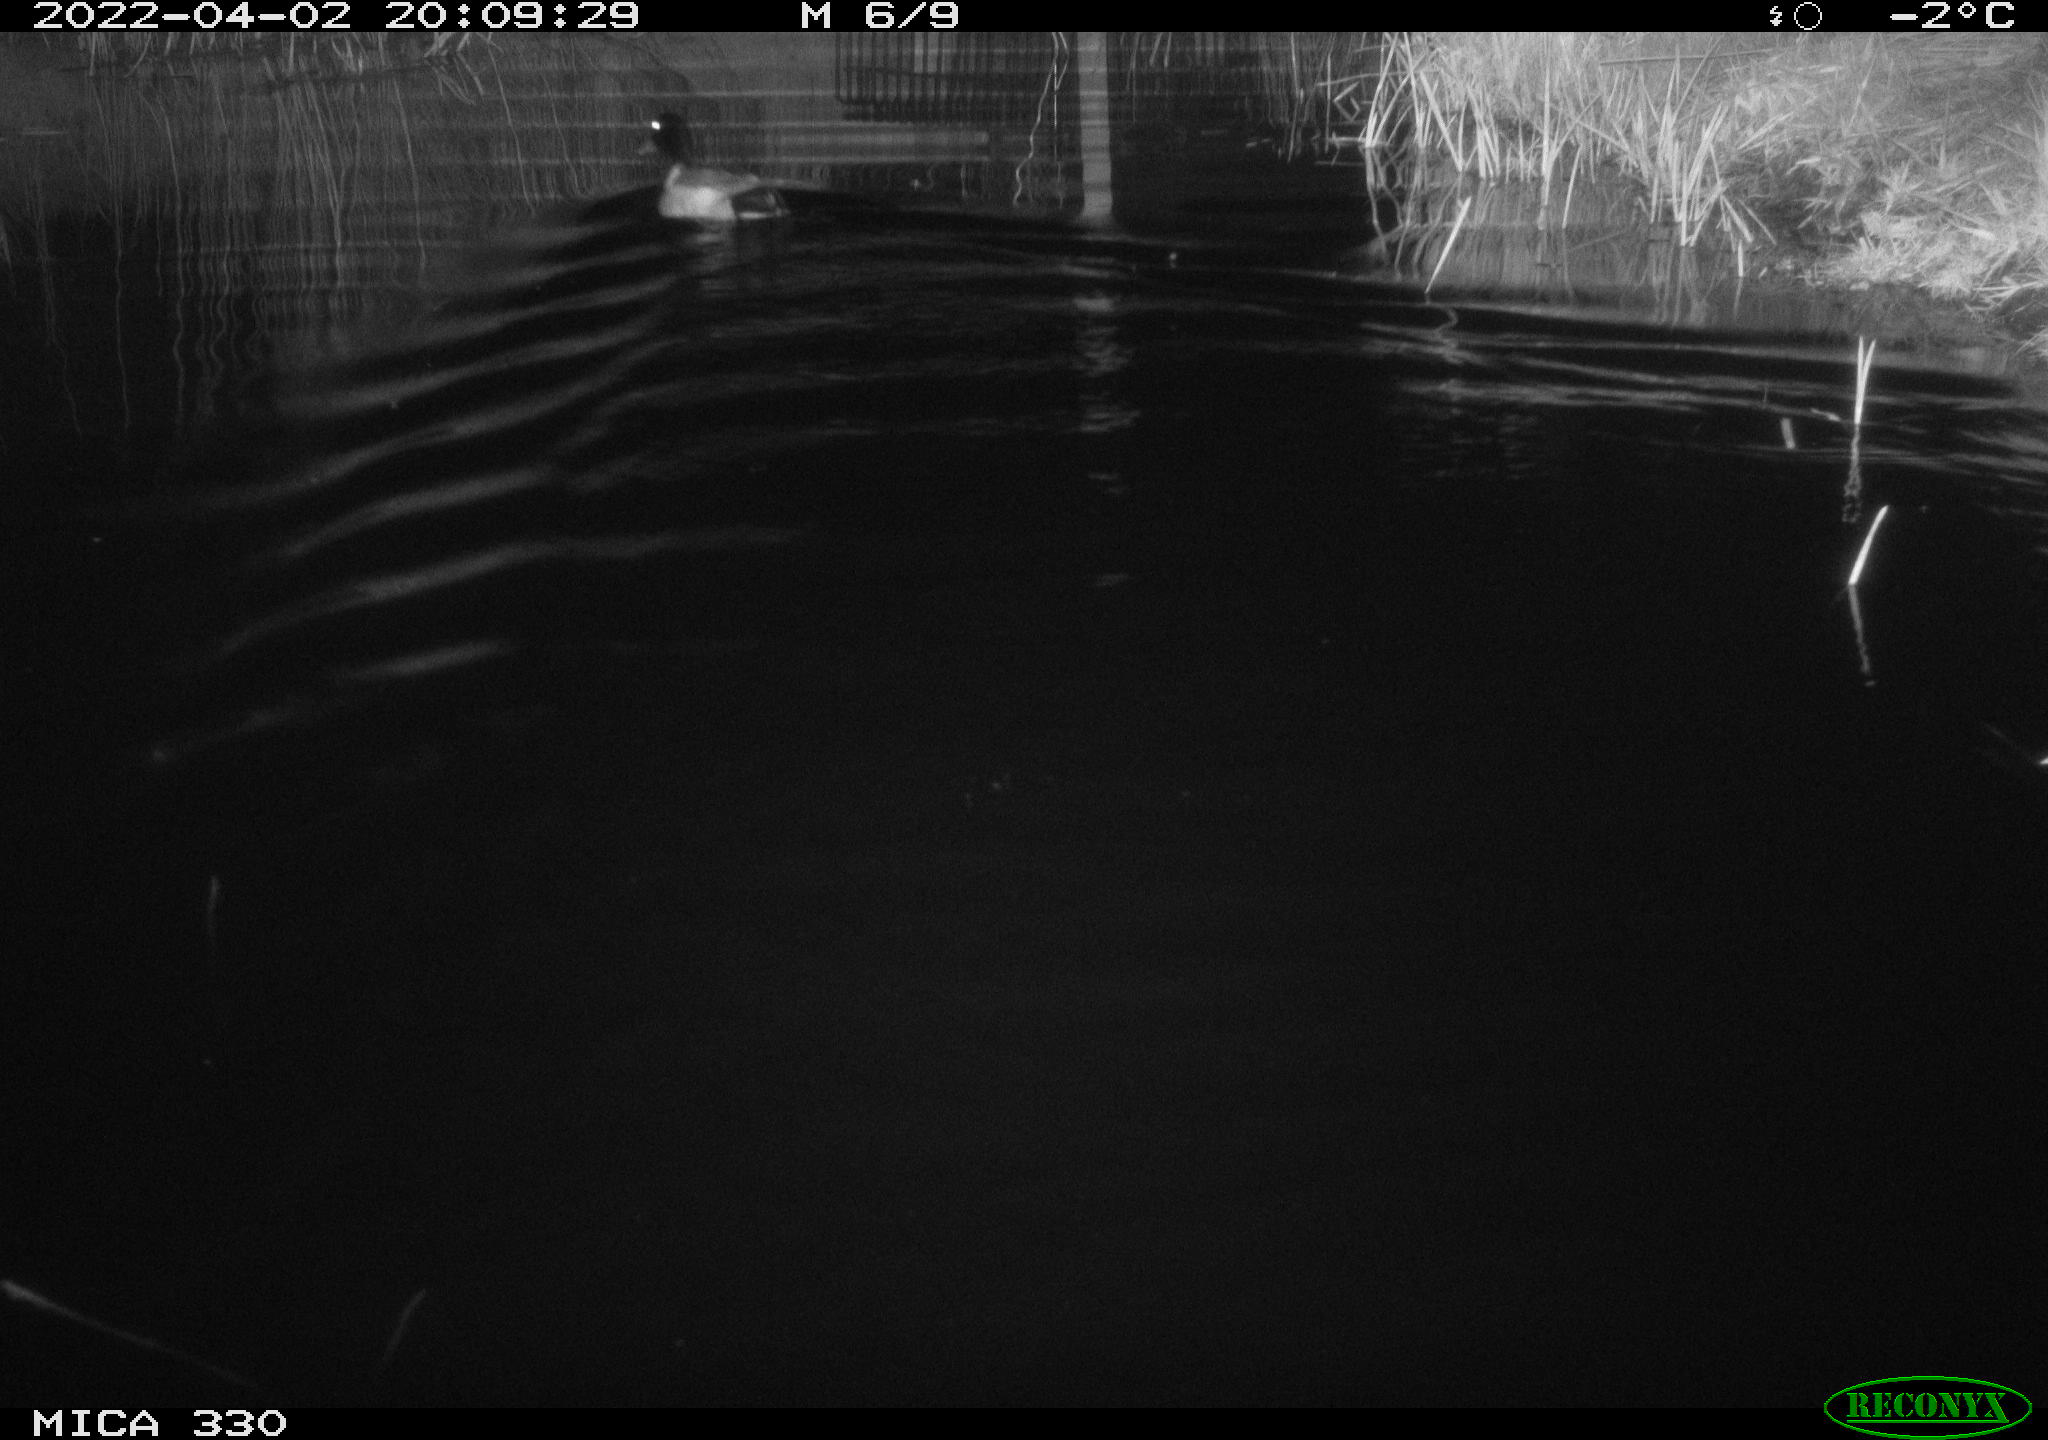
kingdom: Animalia
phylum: Chordata
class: Aves
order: Anseriformes
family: Anatidae
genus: Anas
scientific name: Anas platyrhynchos
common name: Mallard
